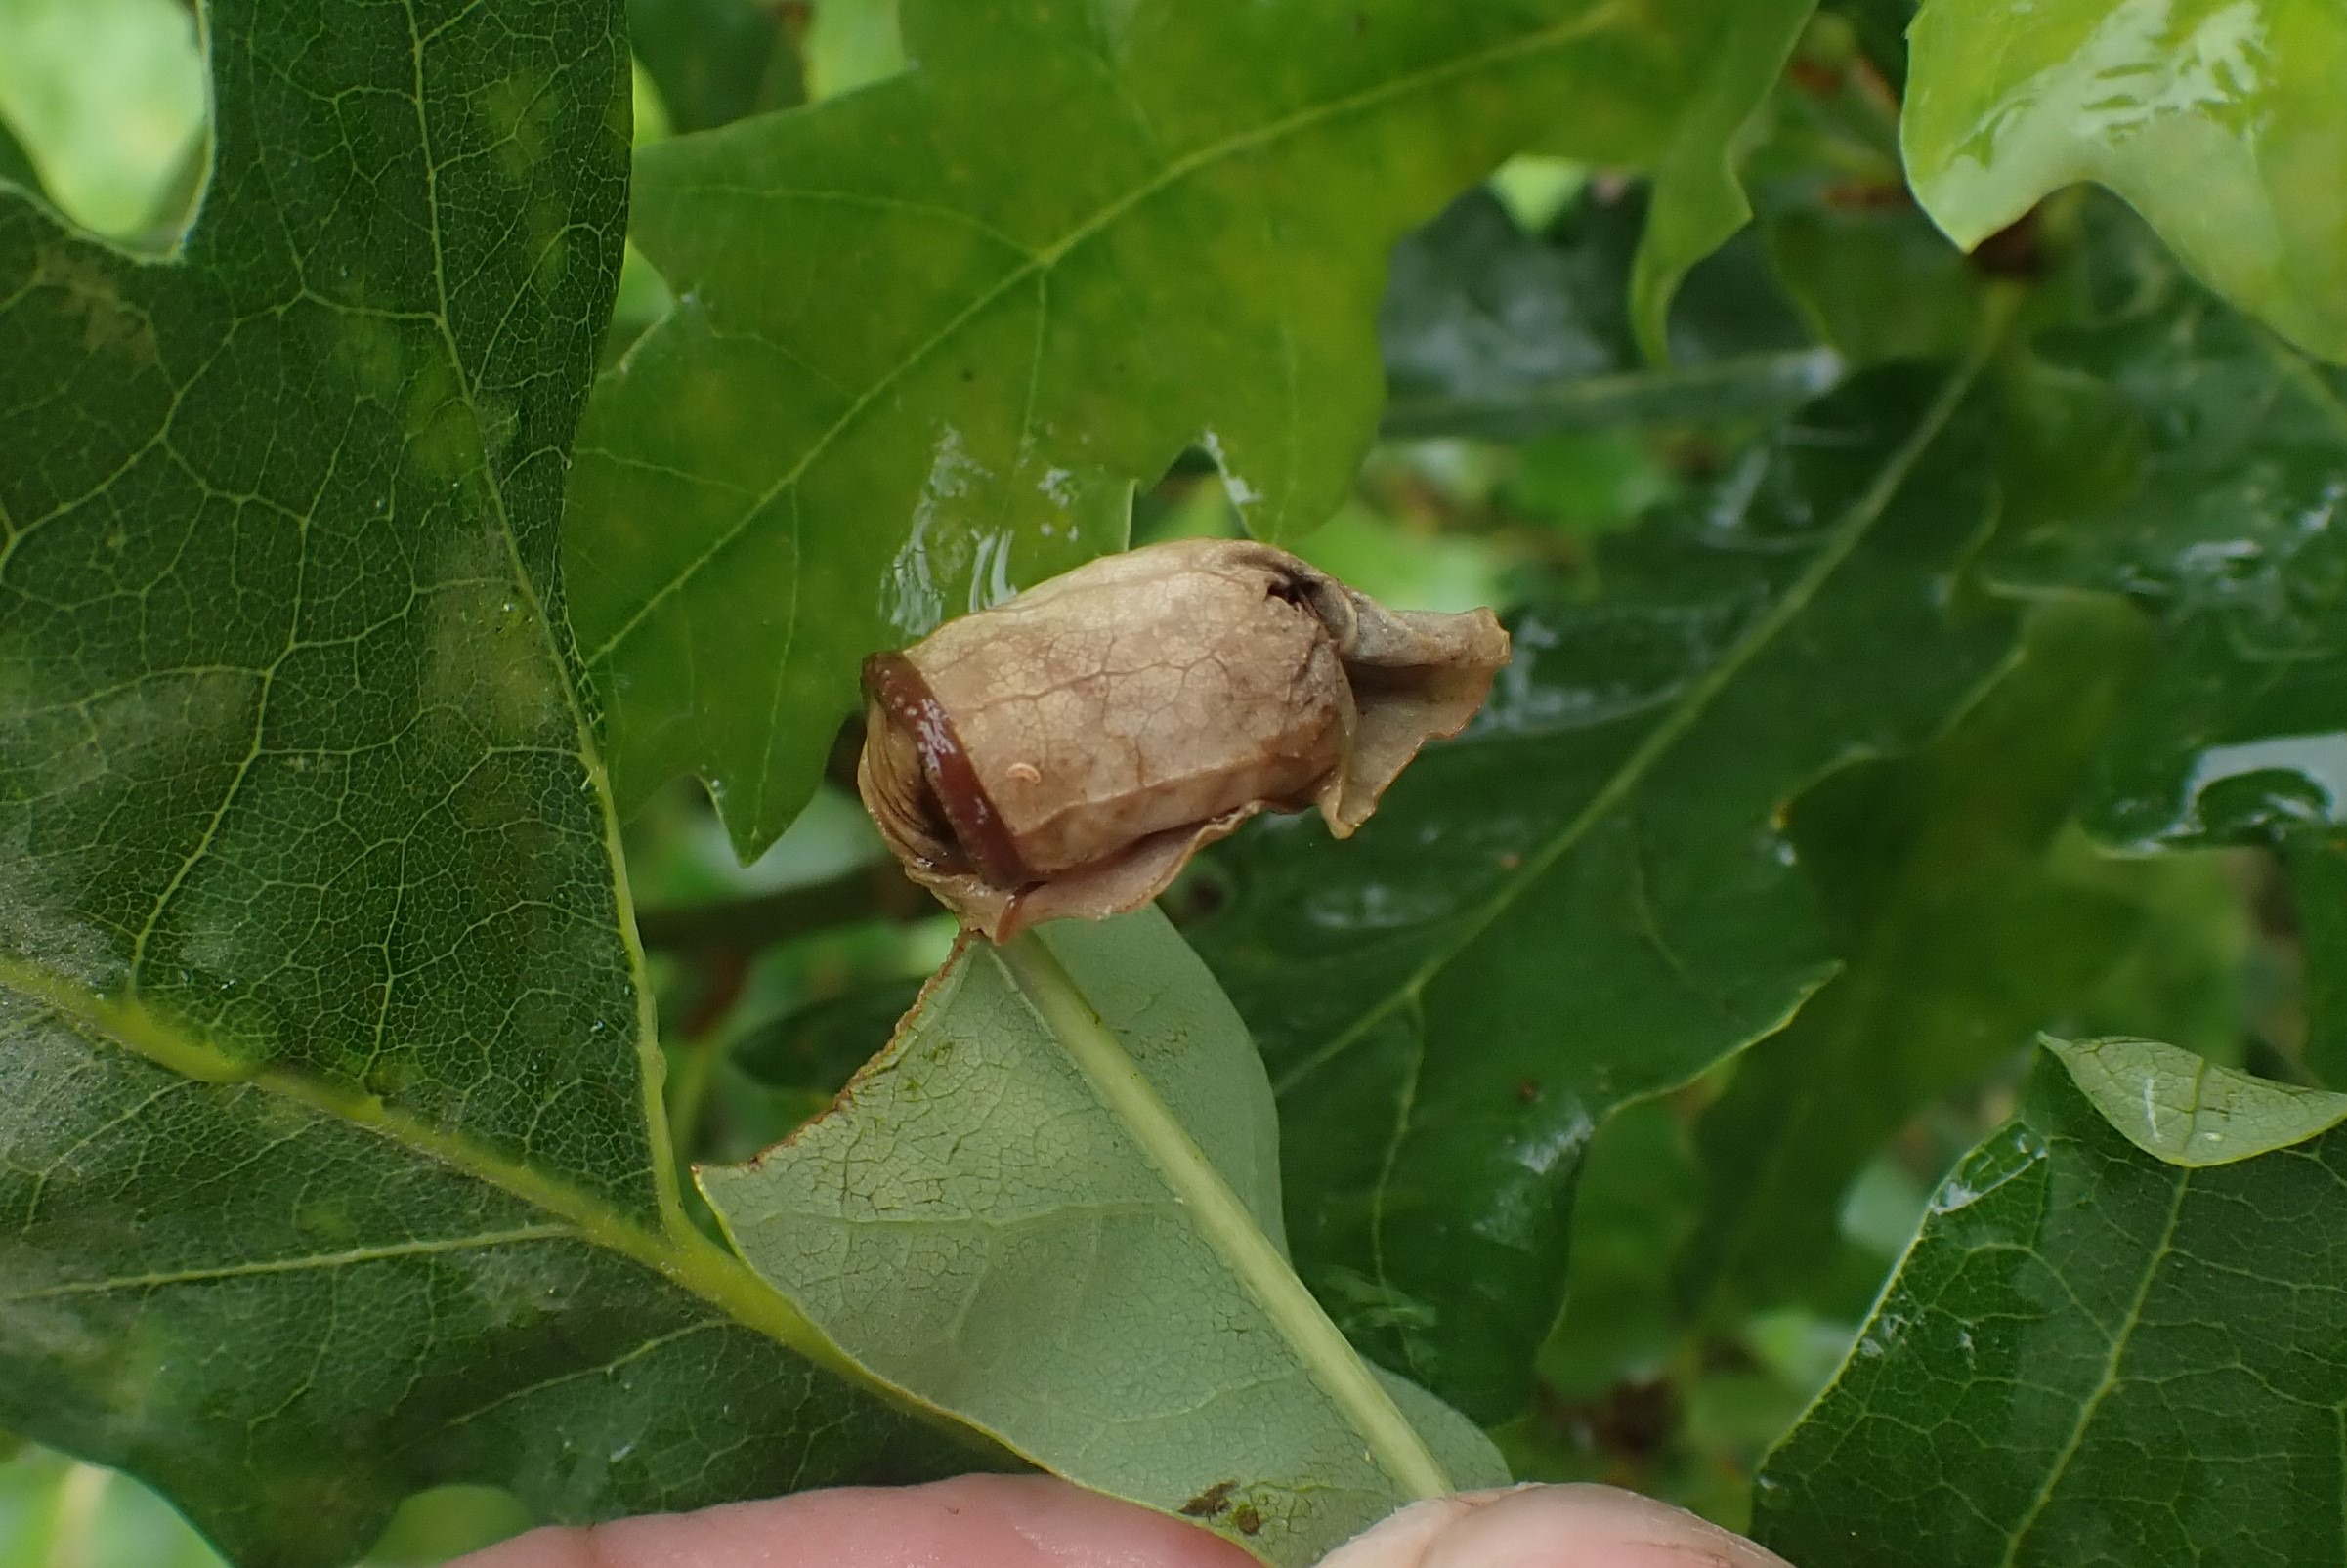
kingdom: Animalia
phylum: Arthropoda
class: Insecta
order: Coleoptera
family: Attelabidae
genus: Attelabus
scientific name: Attelabus nitens
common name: Egebladruller
